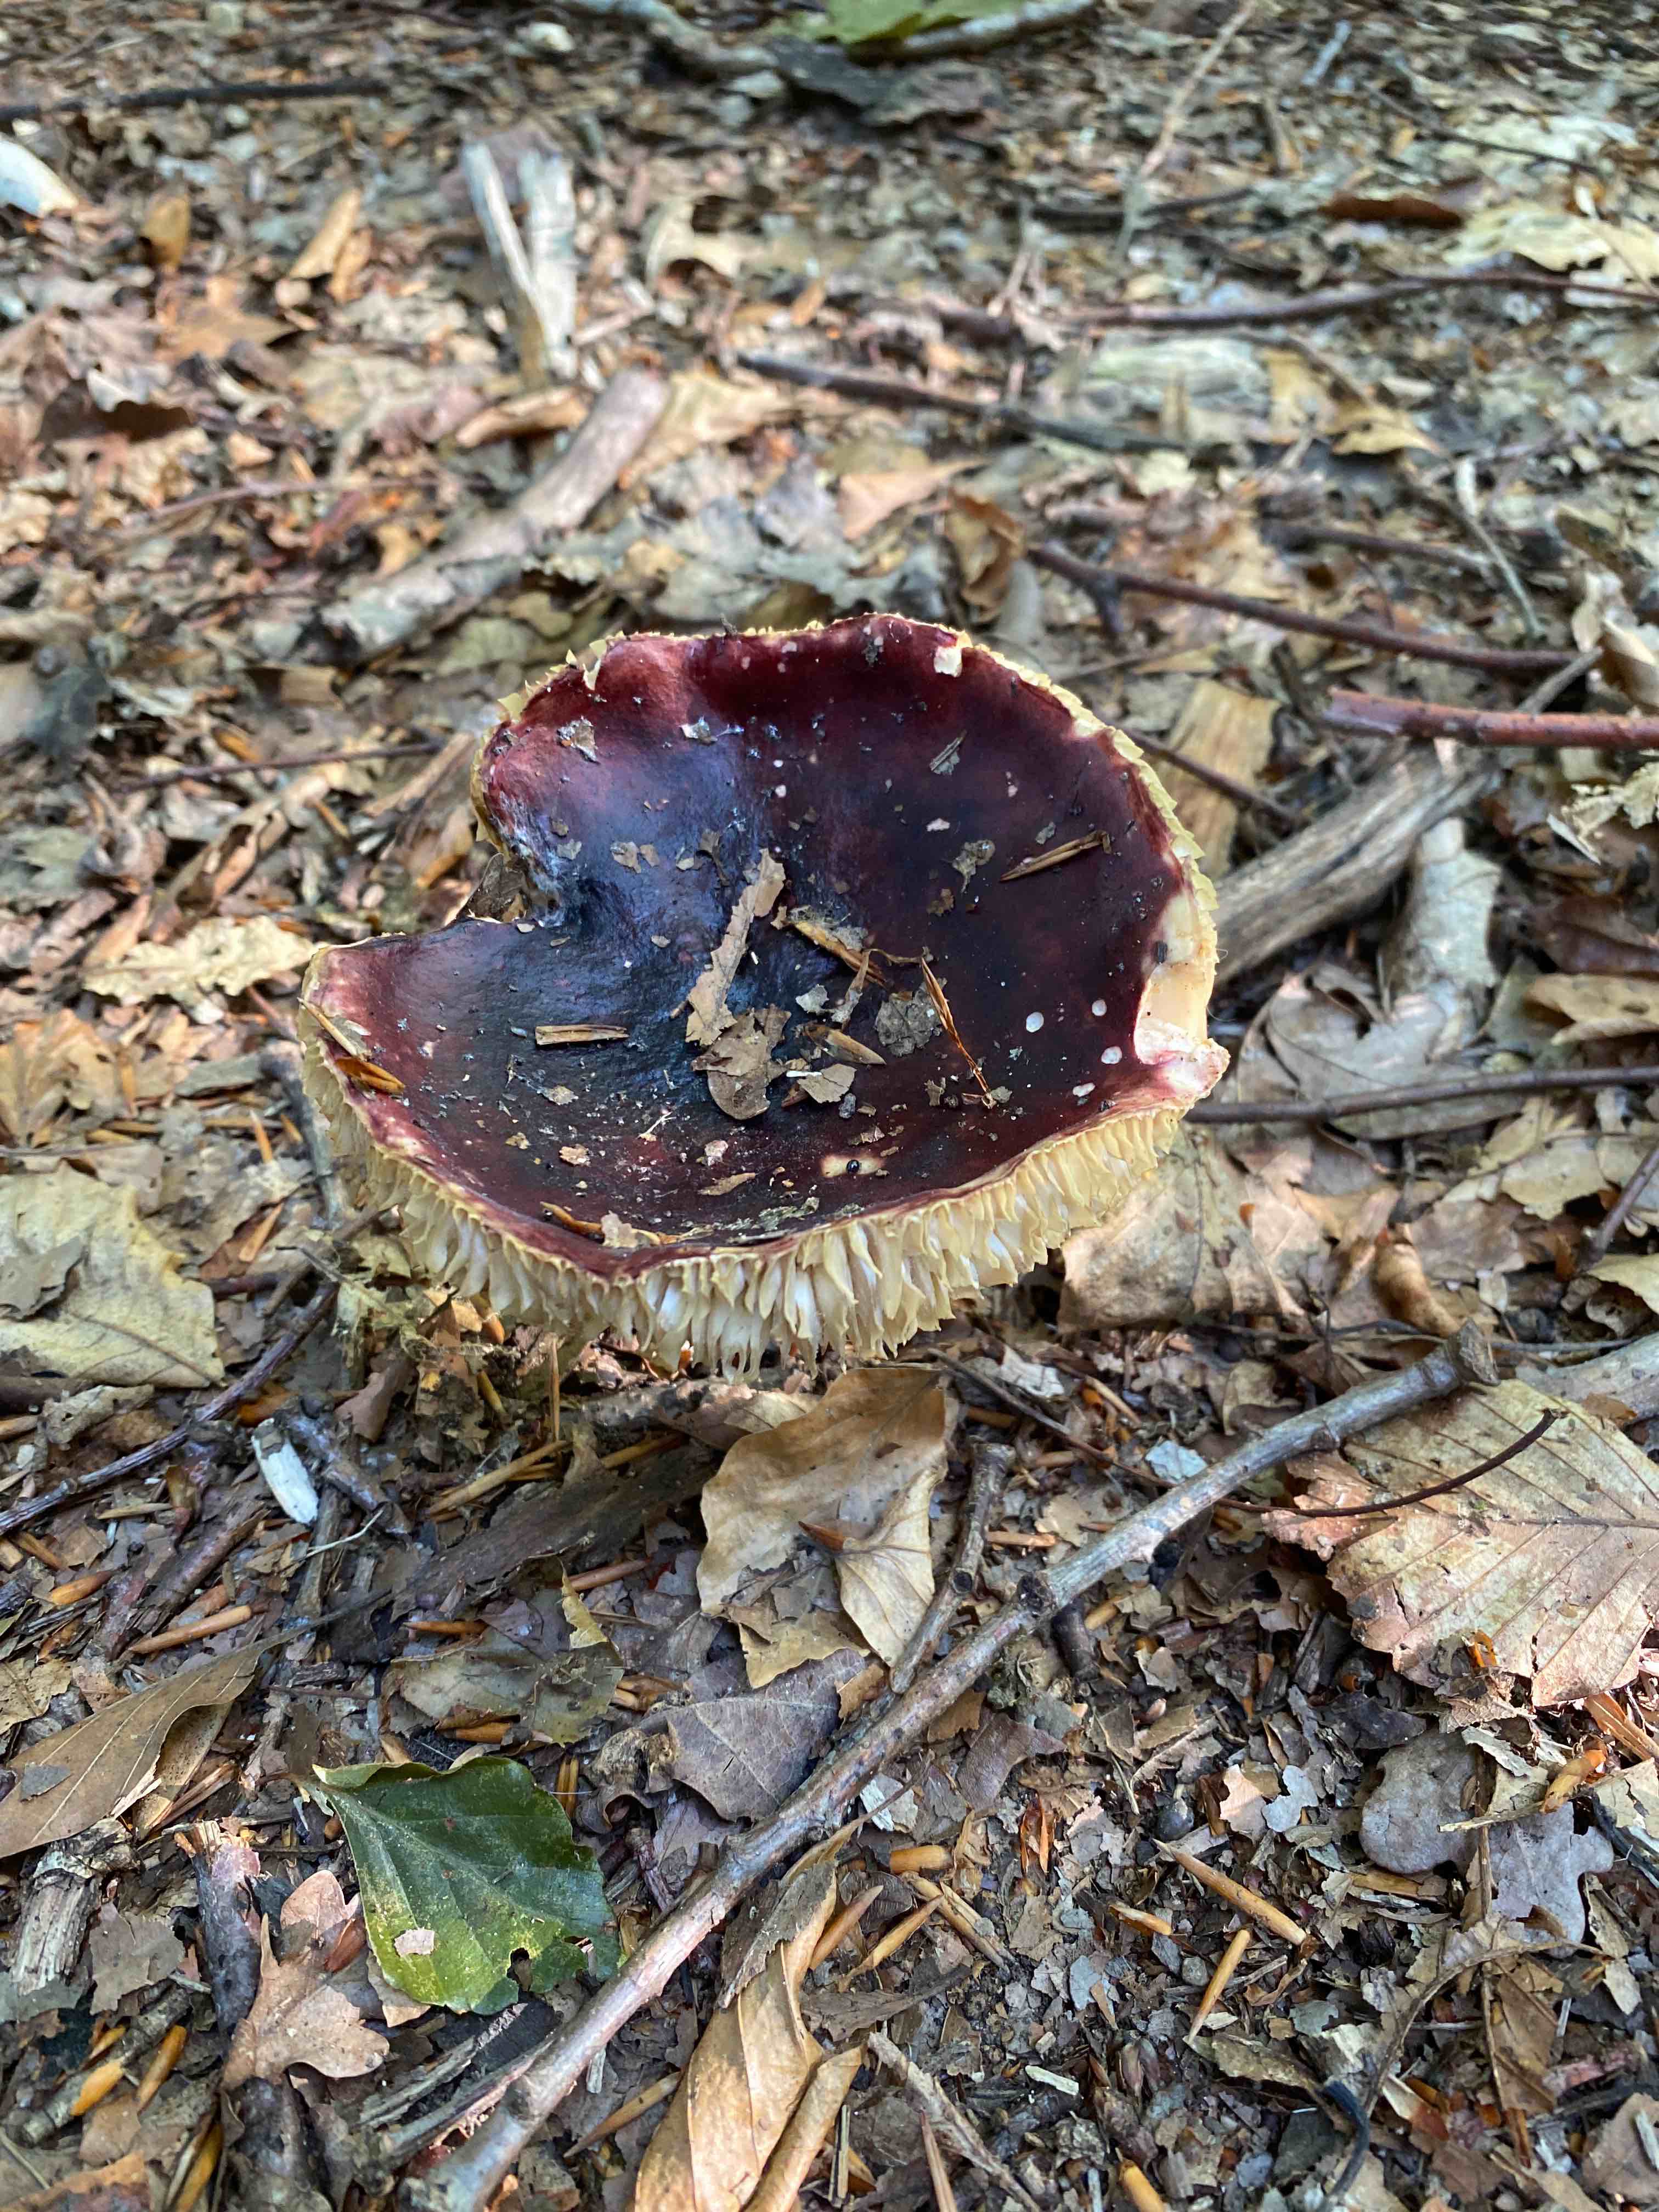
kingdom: Fungi
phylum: Basidiomycota
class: Agaricomycetes
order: Russulales
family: Russulaceae
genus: Russula
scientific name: Russula
